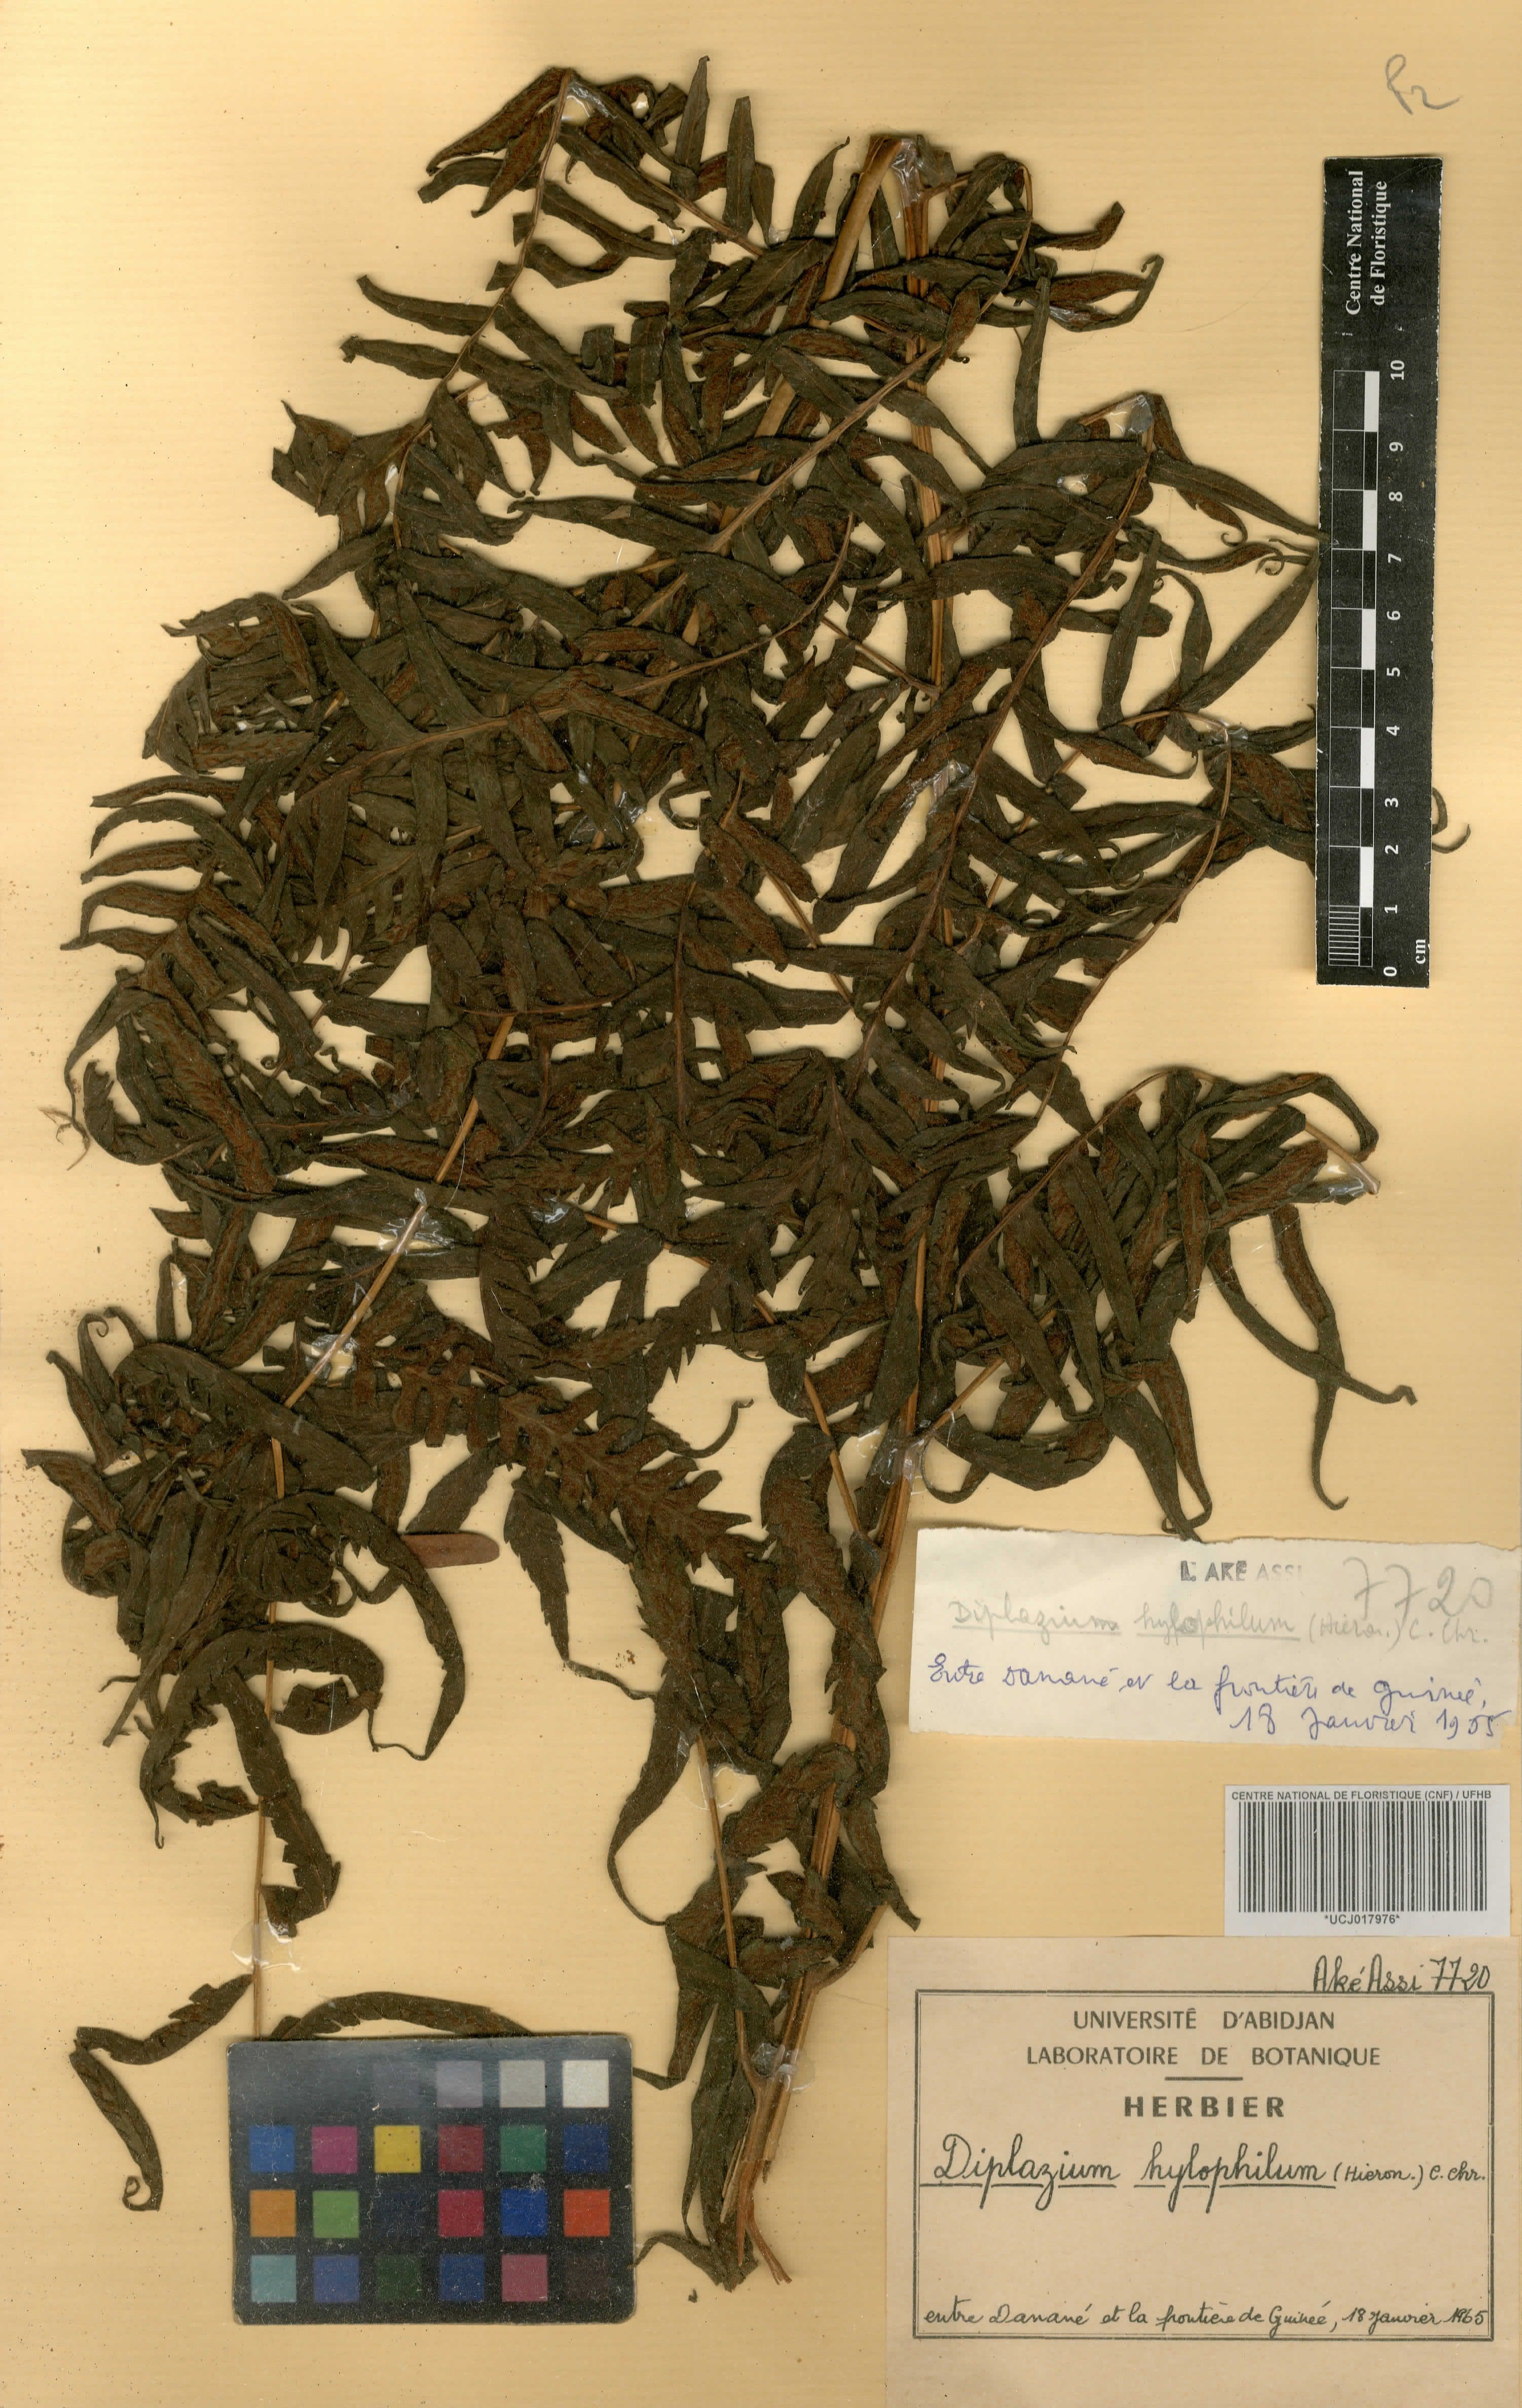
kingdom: Plantae
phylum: Tracheophyta
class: Polypodiopsida
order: Polypodiales
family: Athyriaceae
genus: Diplazium
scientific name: Diplazium nemorale
